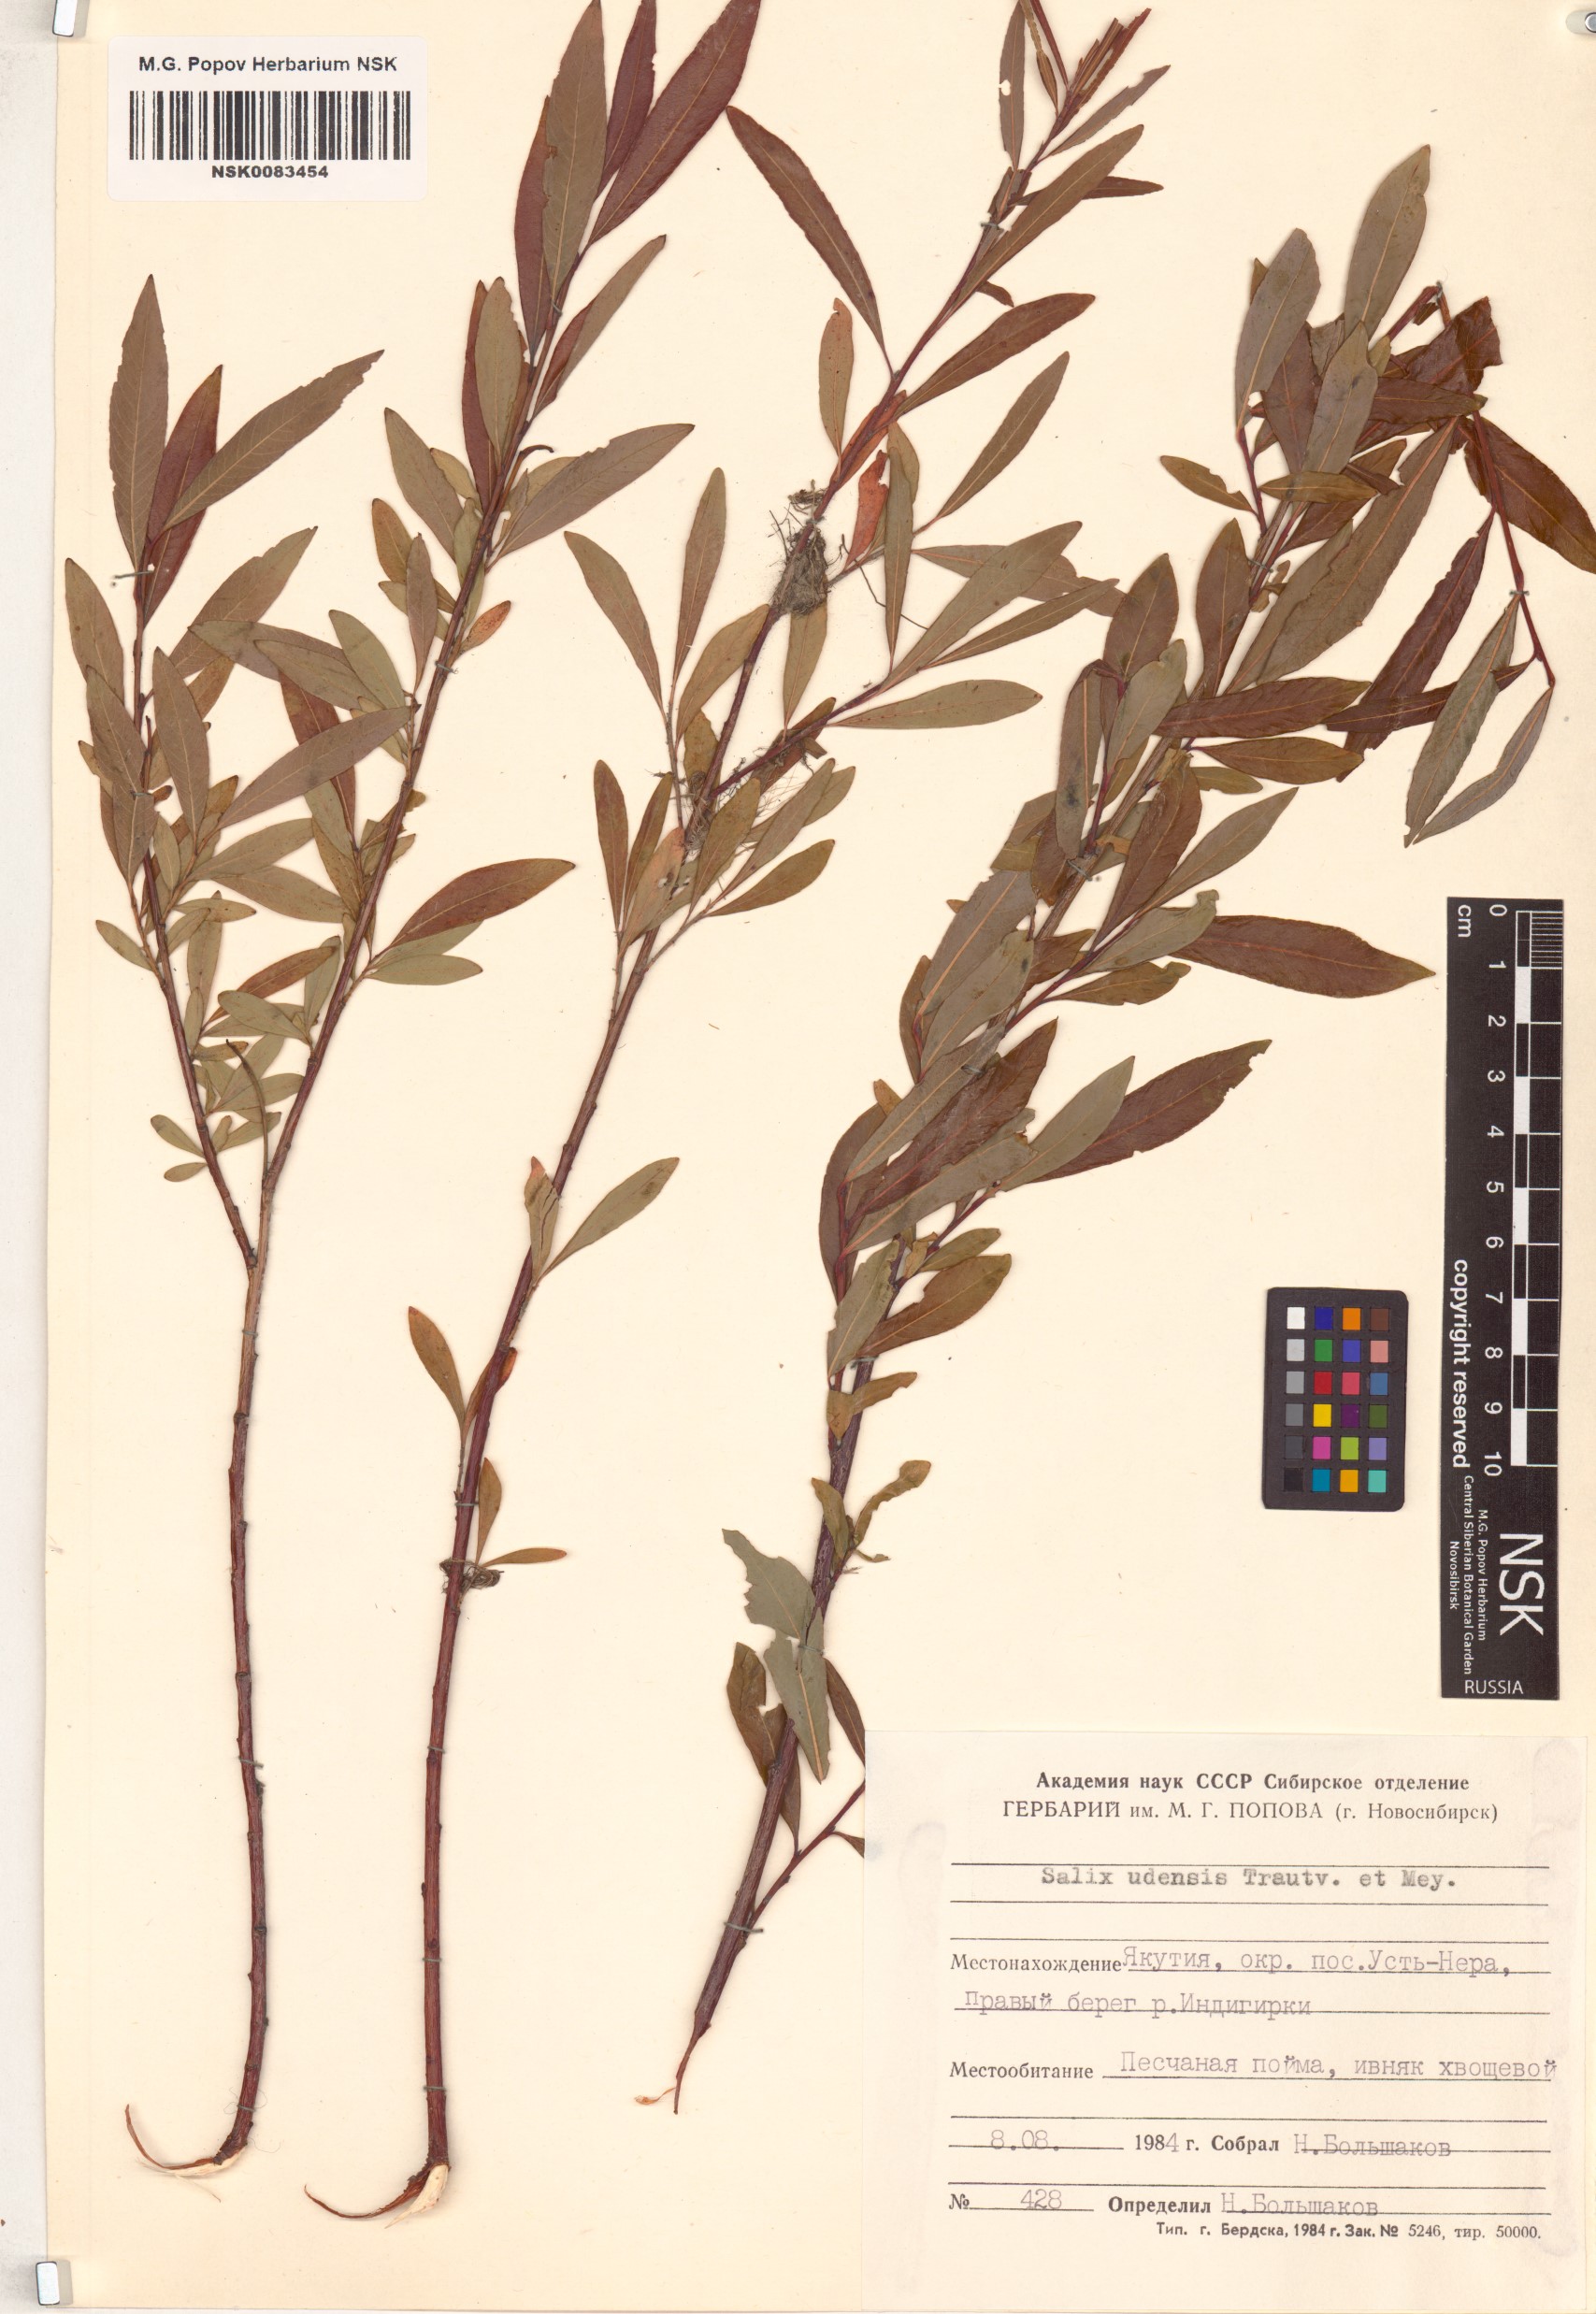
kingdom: Plantae
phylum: Tracheophyta
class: Magnoliopsida
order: Malpighiales
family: Salicaceae
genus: Salix
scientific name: Salix udensis
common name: Sachalin willow
